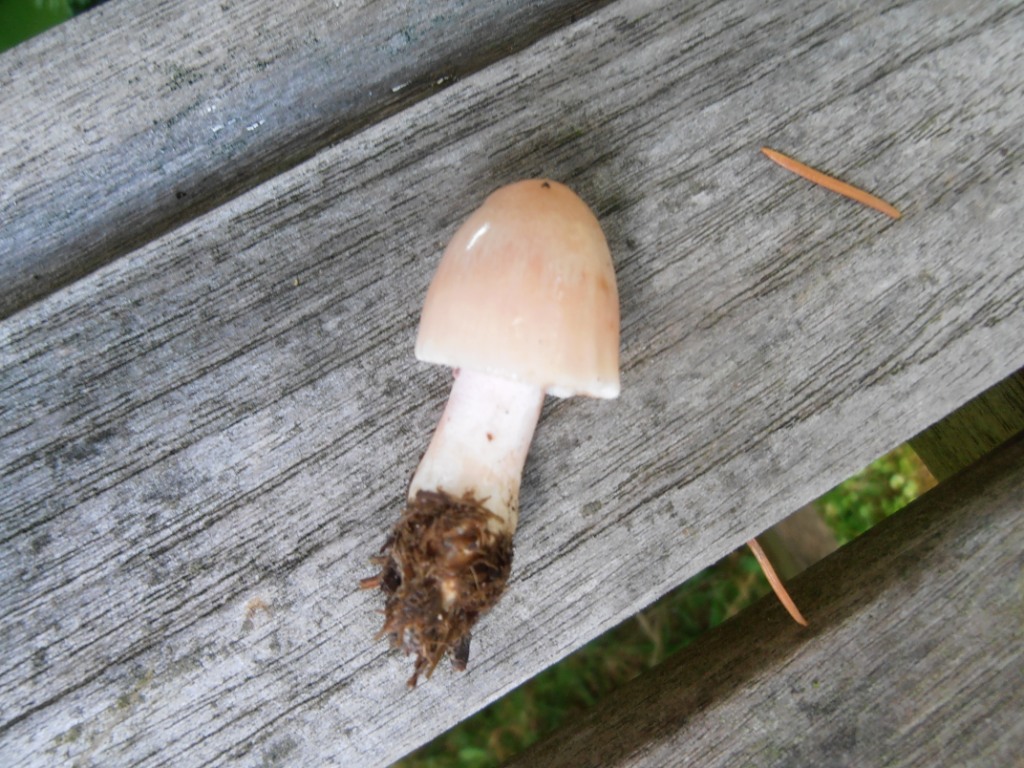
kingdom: Fungi
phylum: Basidiomycota
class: Agaricomycetes
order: Agaricales
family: Bolbitiaceae
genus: Bolbitius
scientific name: Bolbitius coprophilus
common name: rosa gulhat
